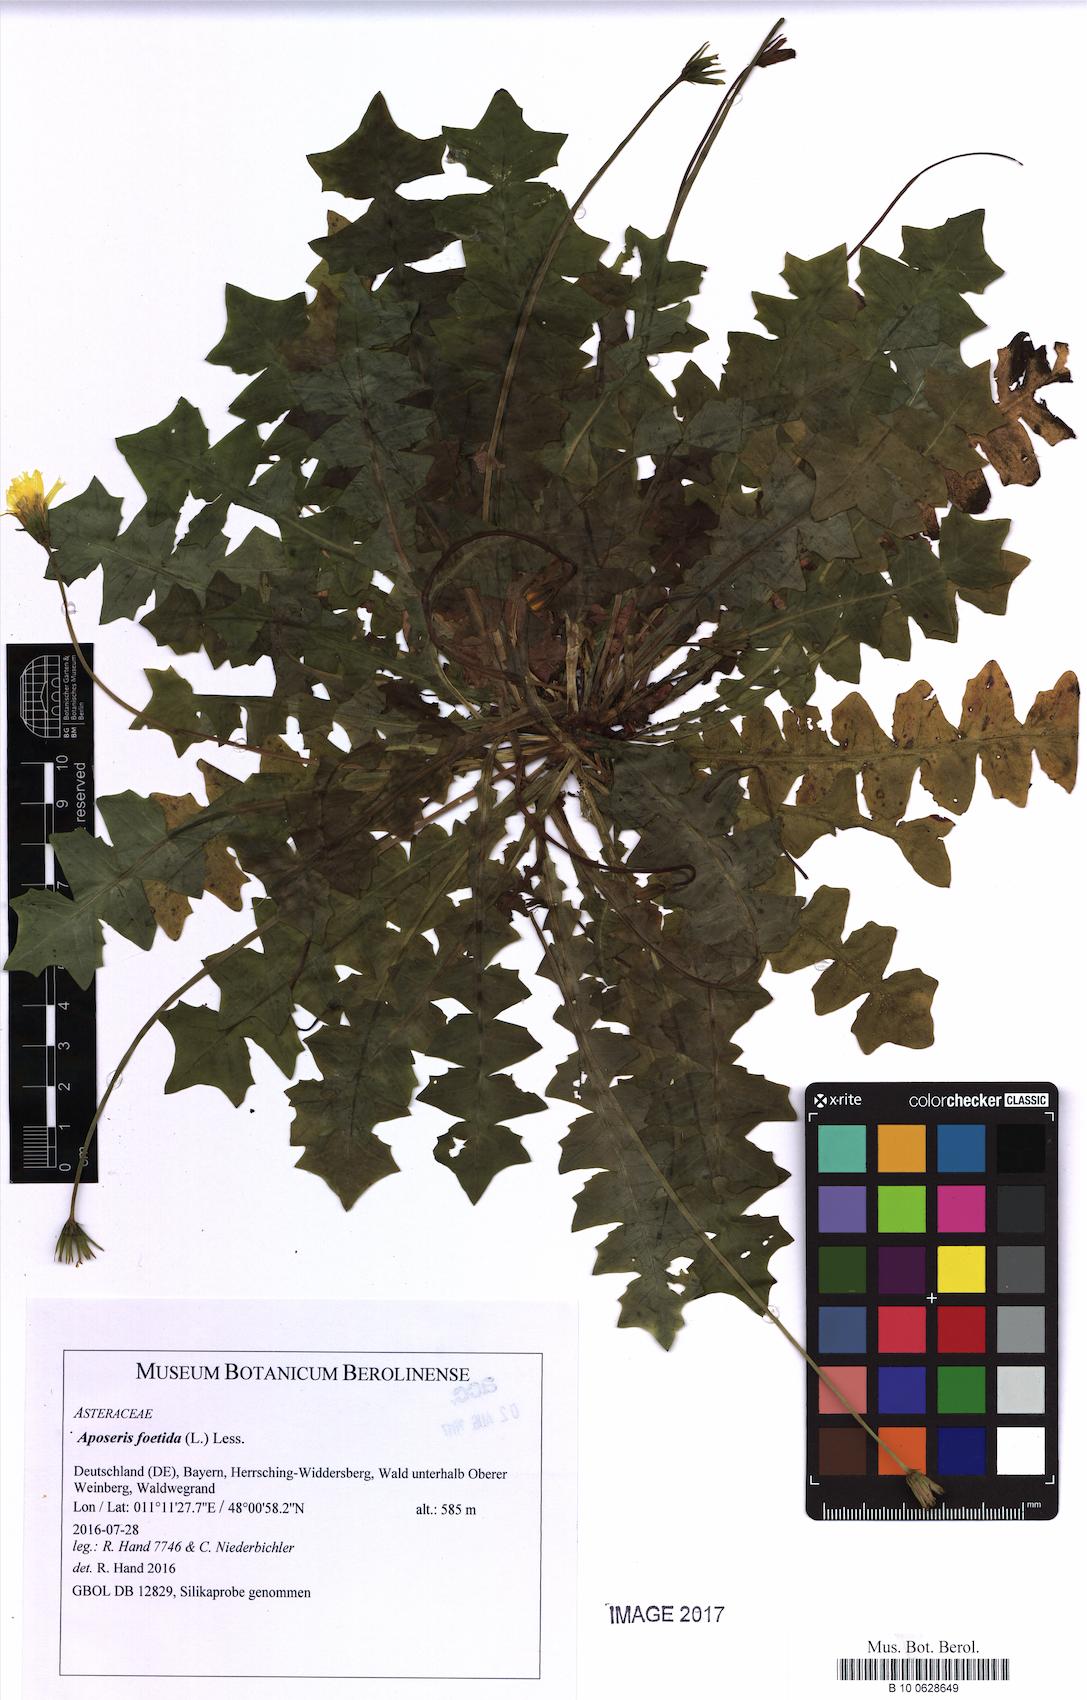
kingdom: Plantae
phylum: Tracheophyta
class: Magnoliopsida
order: Asterales
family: Asteraceae
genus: Aposeris
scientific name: Aposeris foetida
